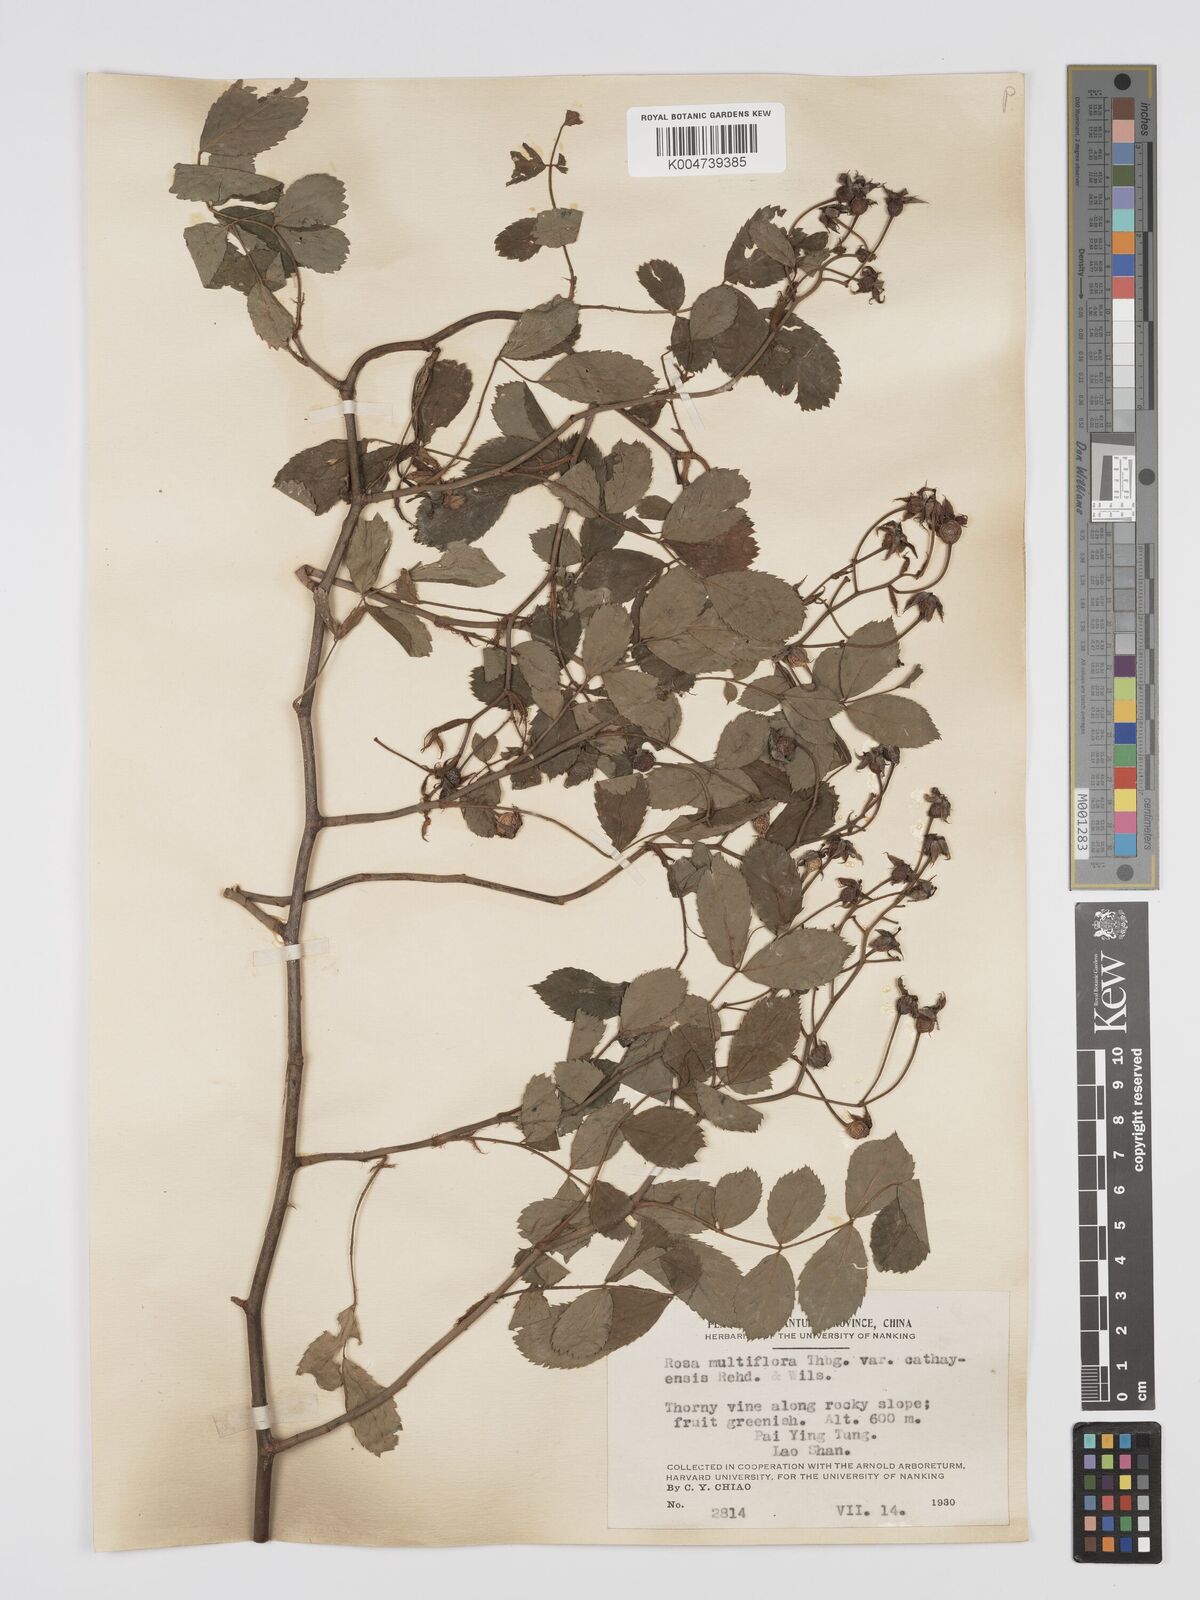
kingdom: Plantae
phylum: Tracheophyta
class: Magnoliopsida
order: Rosales
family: Rosaceae
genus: Rosa
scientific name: Rosa multiflora
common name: Multiflora rose
